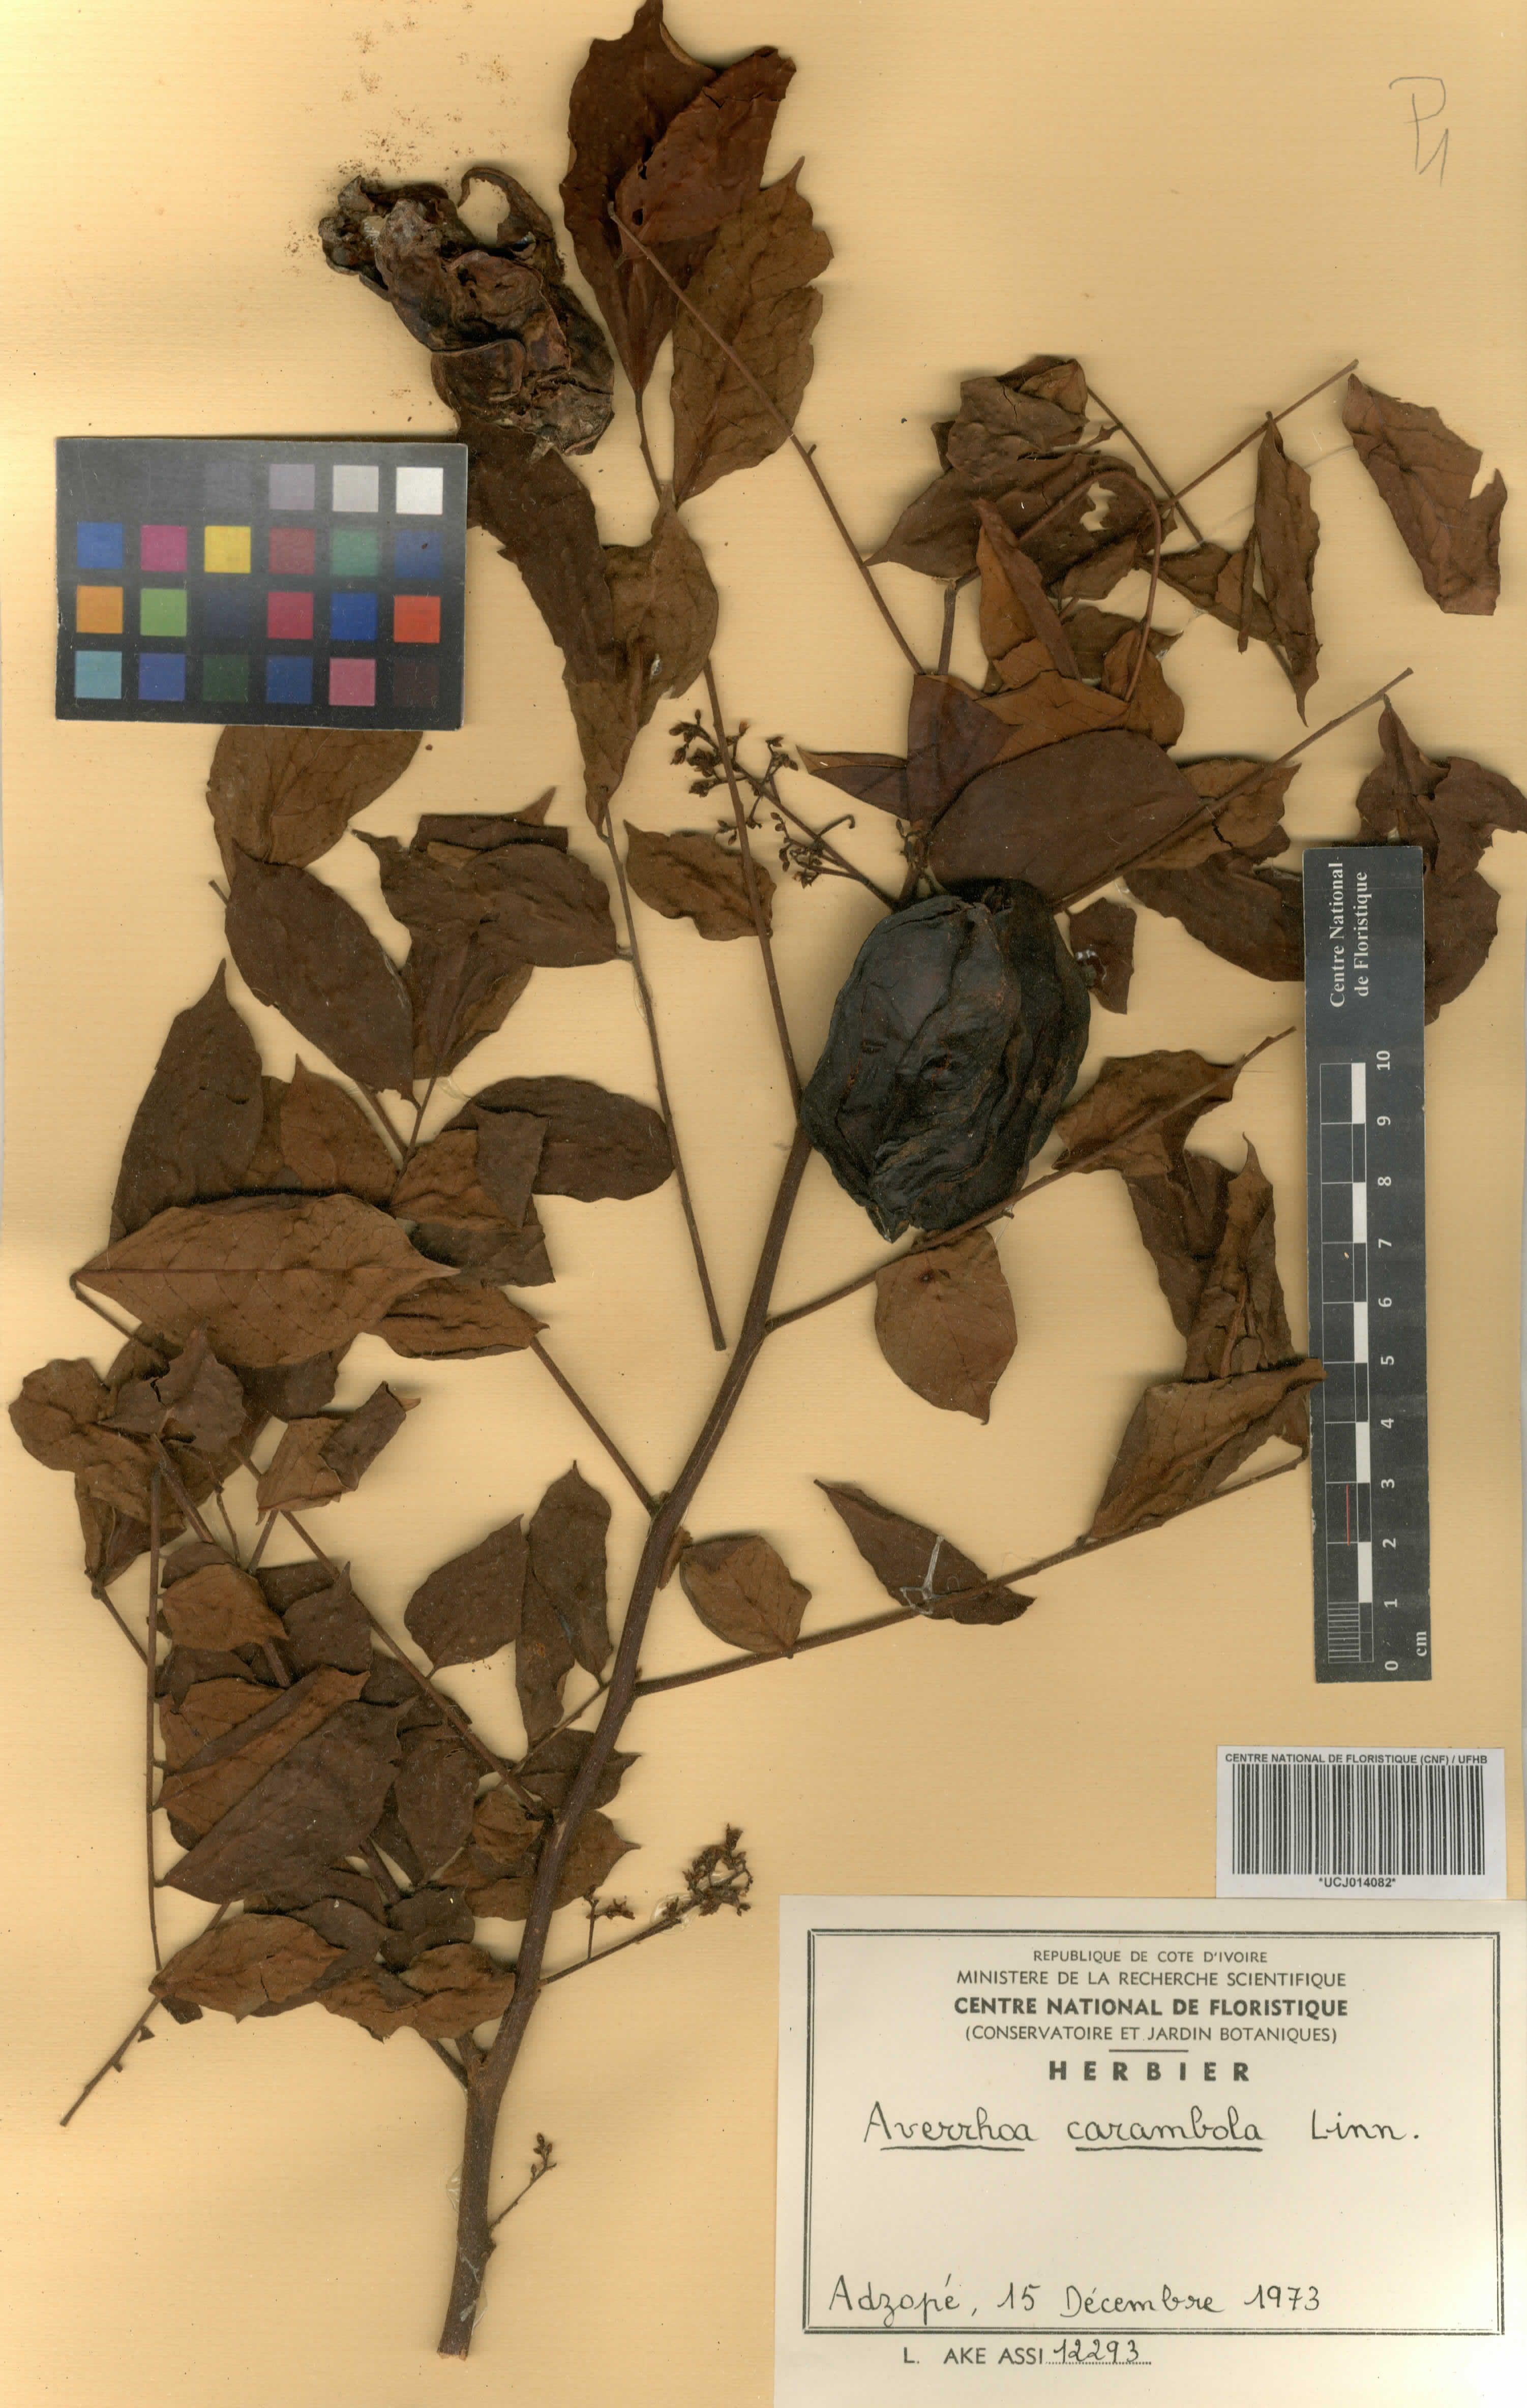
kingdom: Plantae
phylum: Tracheophyta
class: Magnoliopsida
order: Oxalidales
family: Oxalidaceae
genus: Averrhoa
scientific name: Averrhoa carambola
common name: Blimbing
